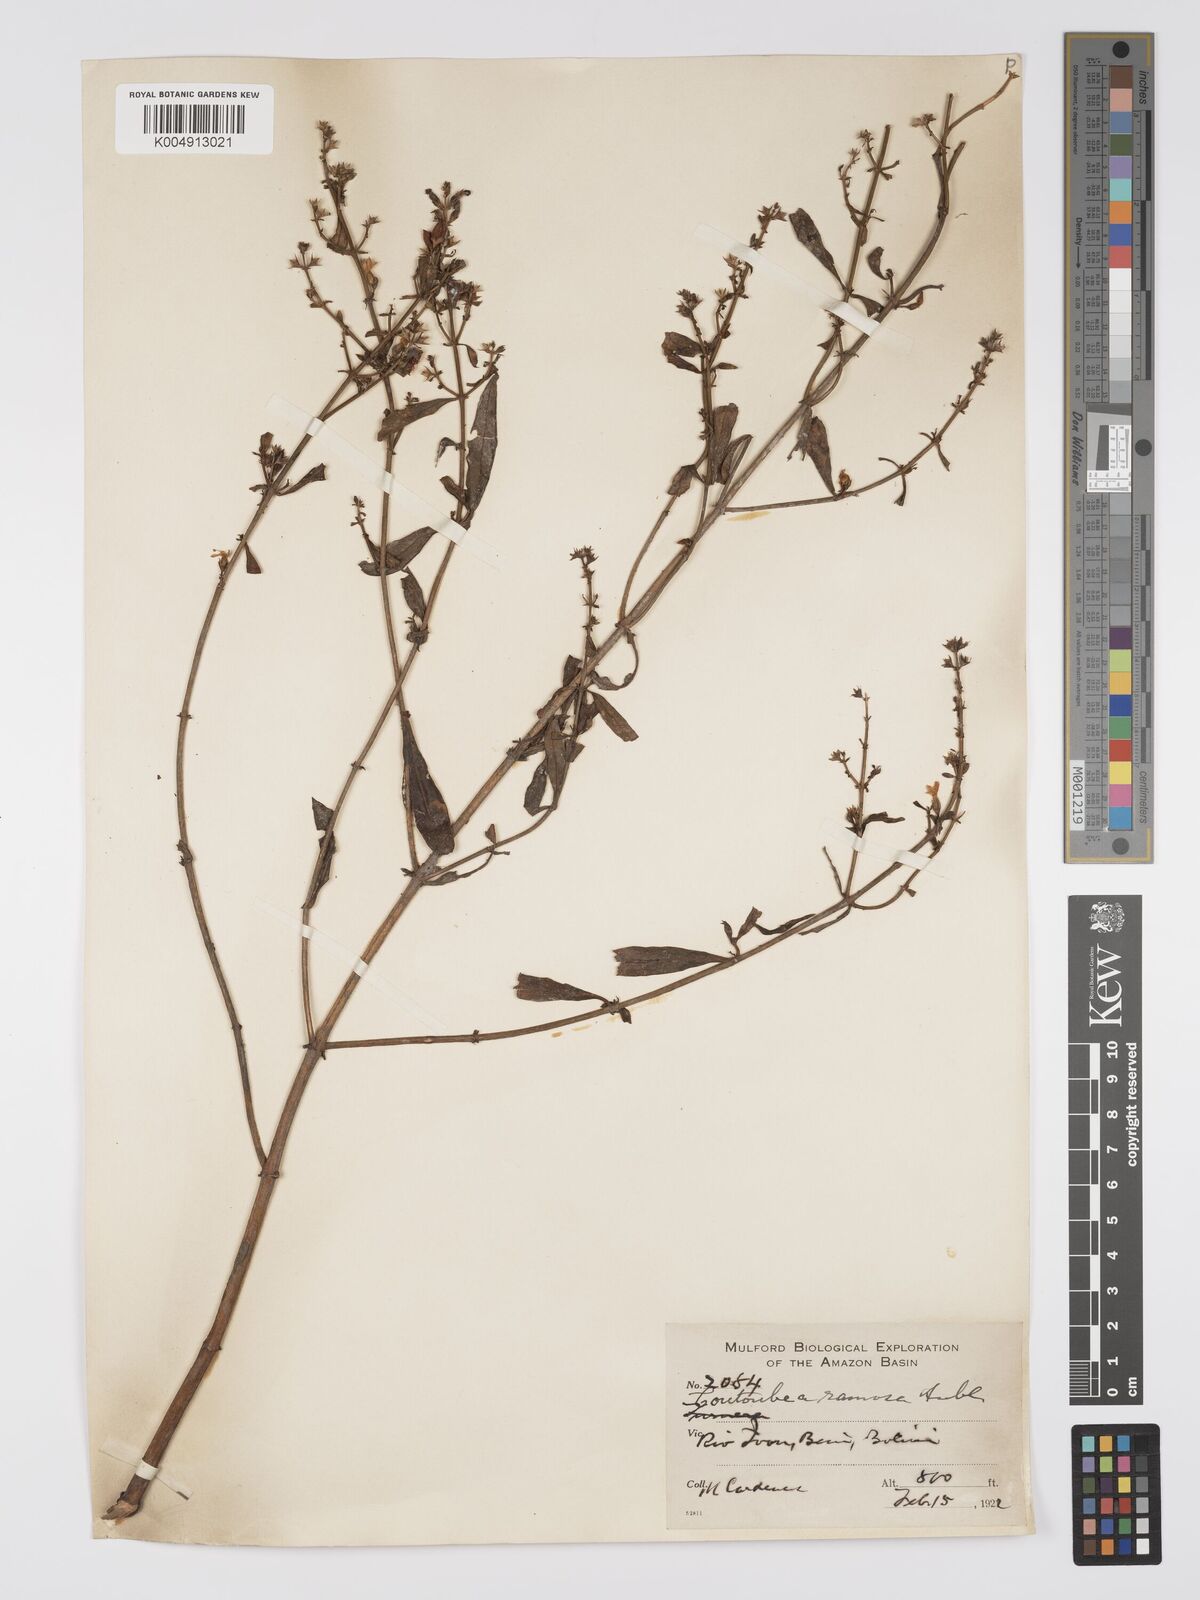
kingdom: Plantae
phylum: Tracheophyta
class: Magnoliopsida
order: Gentianales
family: Gentianaceae
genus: Coutoubea
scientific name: Coutoubea ramosa
